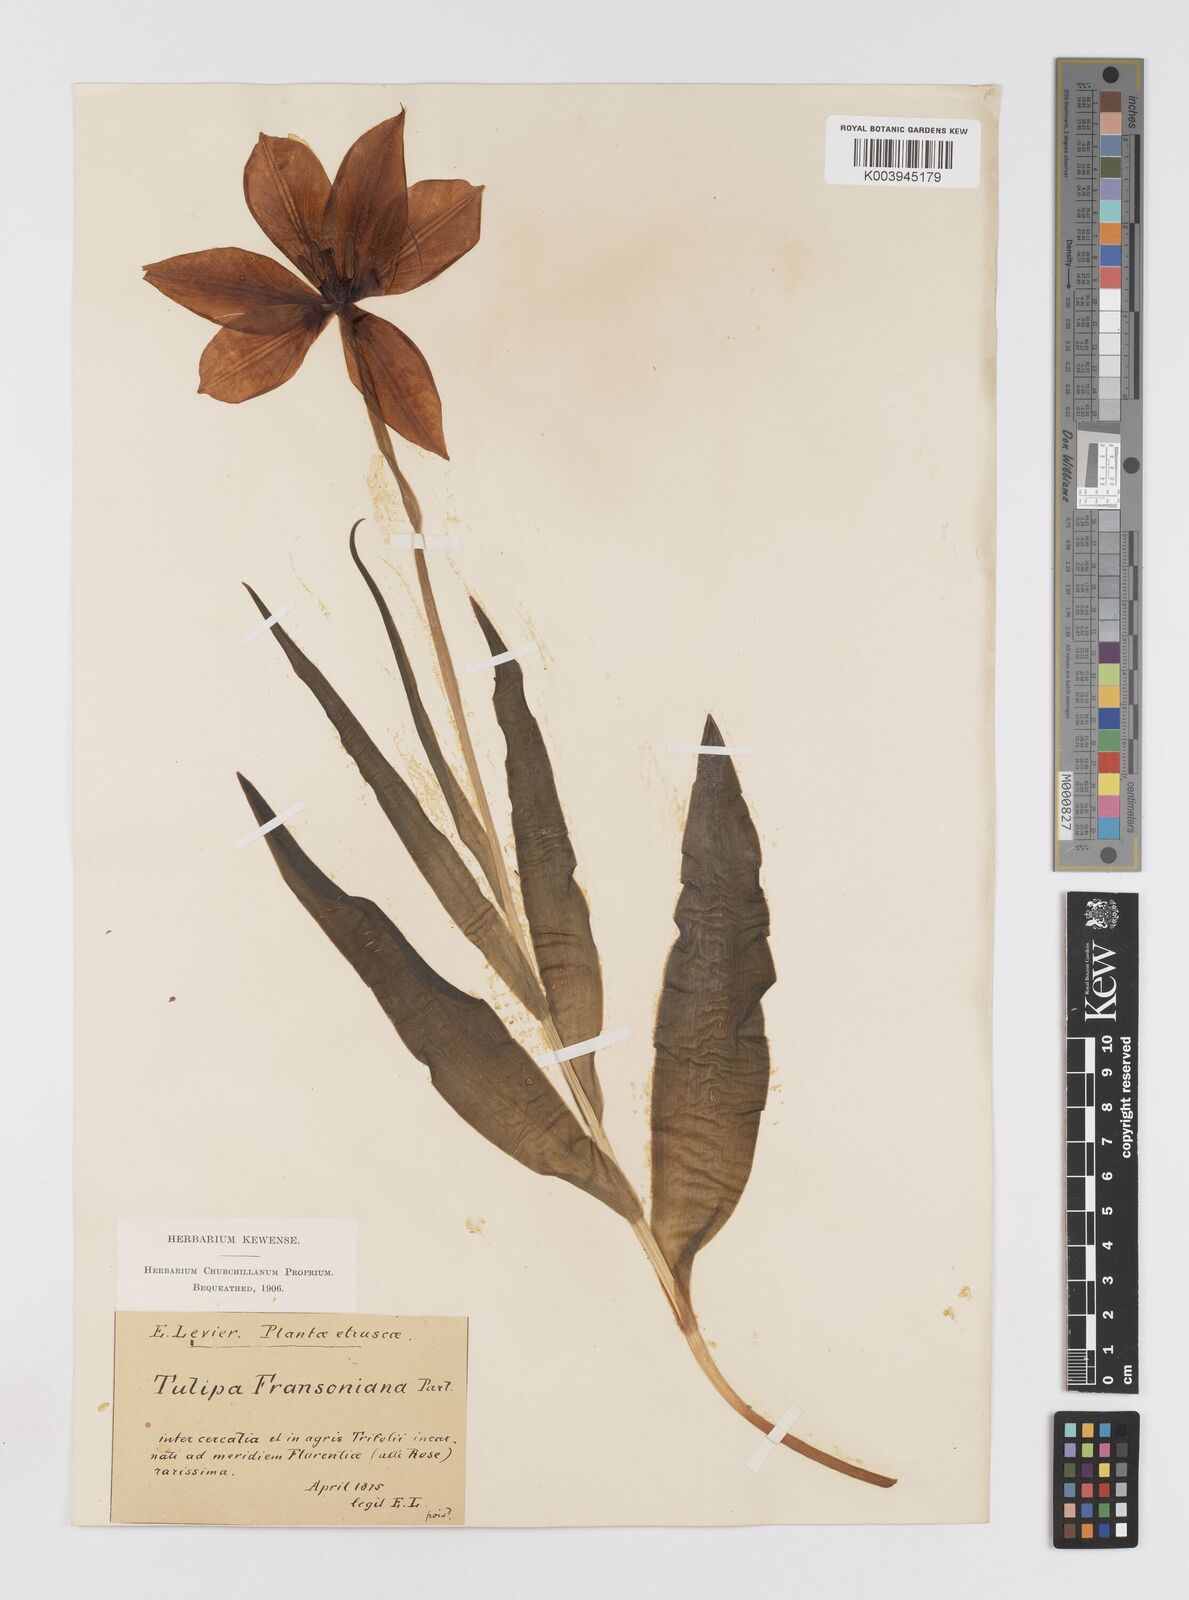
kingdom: Plantae
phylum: Tracheophyta
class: Liliopsida
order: Liliales
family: Liliaceae
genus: Tulipa
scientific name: Tulipa gesneriana
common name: Garden tulip
